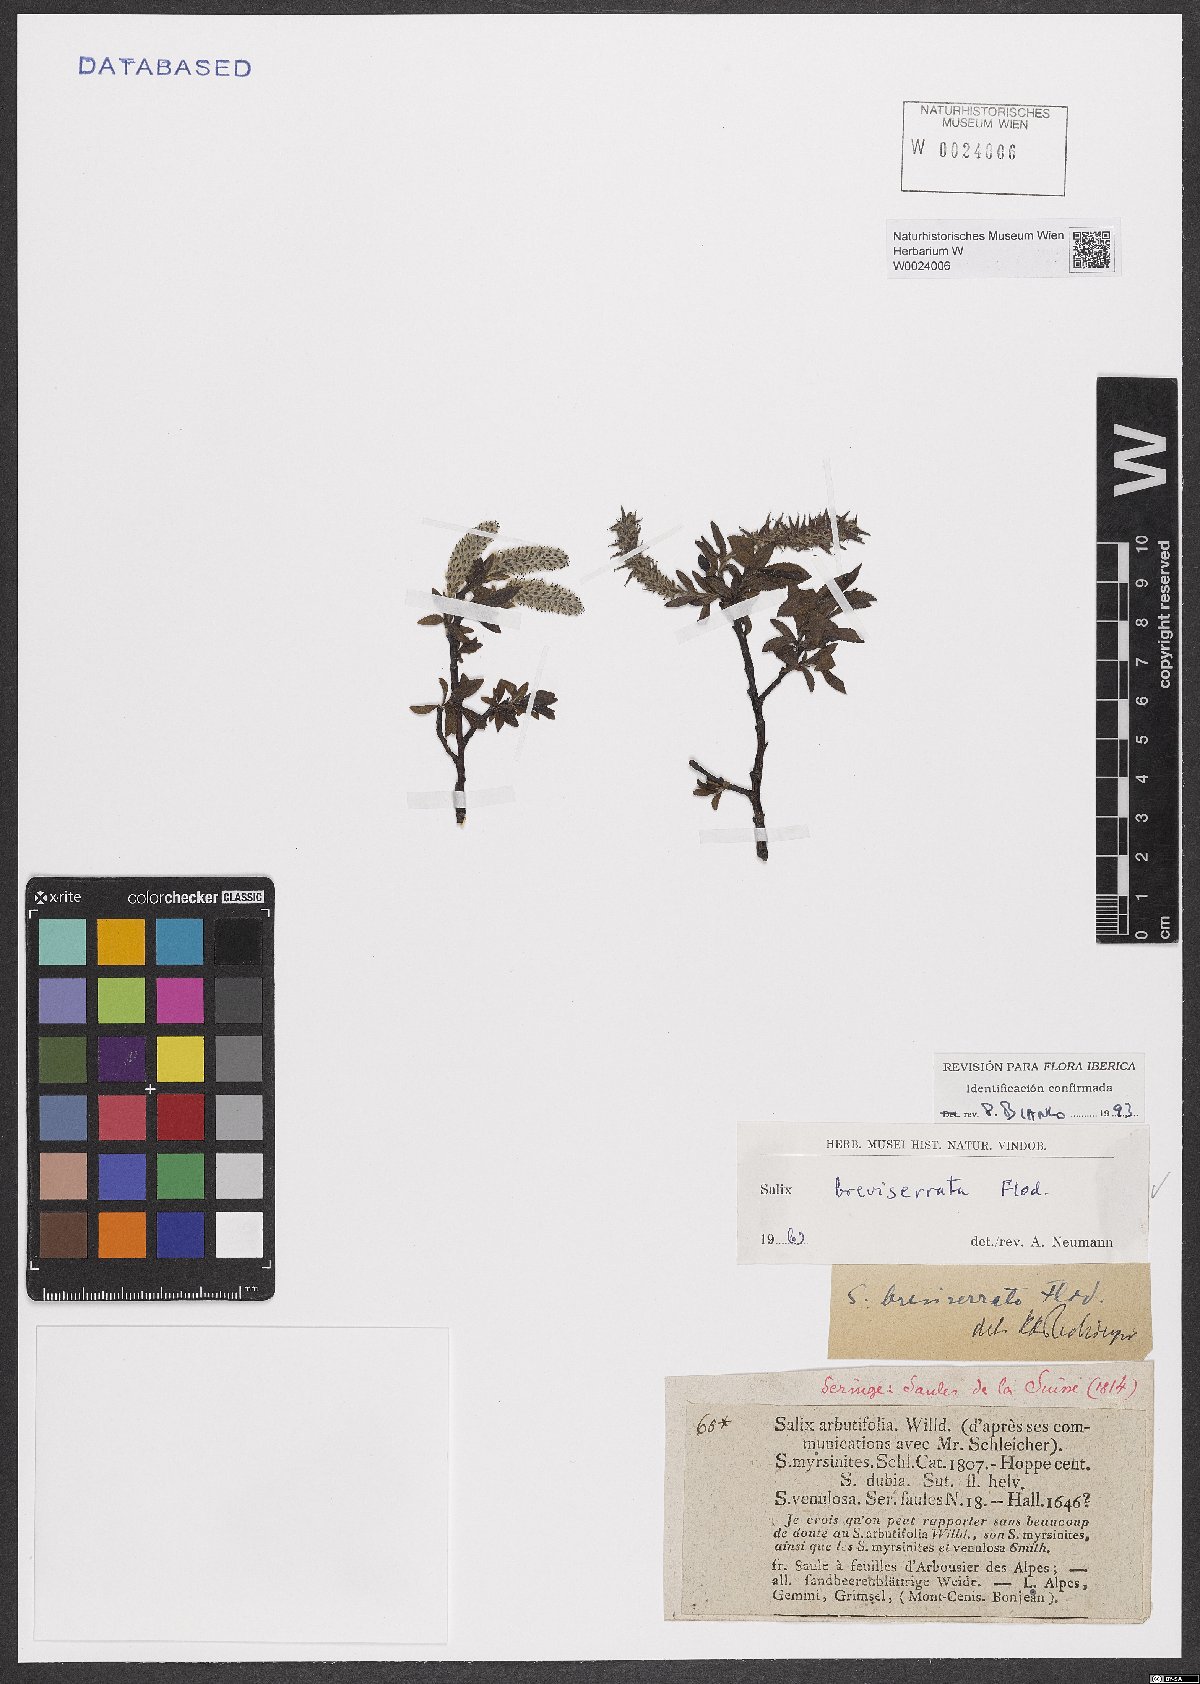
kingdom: Plantae
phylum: Tracheophyta
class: Magnoliopsida
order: Malpighiales
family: Salicaceae
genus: Salix
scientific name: Salix breviserrata
